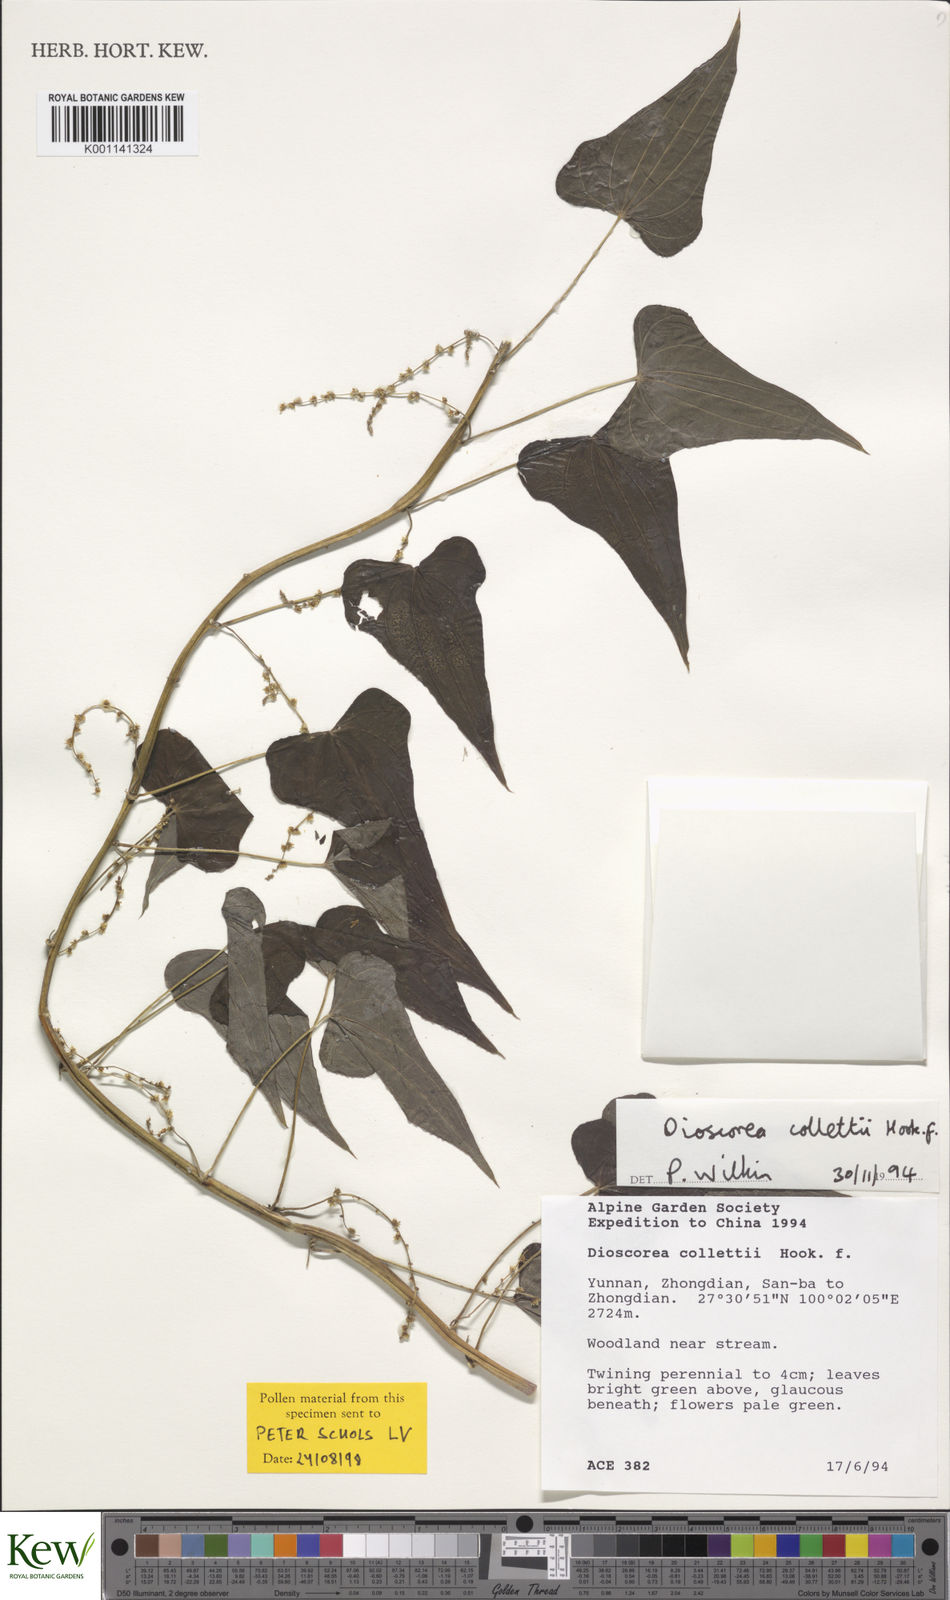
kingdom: Plantae
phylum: Tracheophyta
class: Liliopsida
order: Dioscoreales
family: Dioscoreaceae
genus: Dioscorea
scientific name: Dioscorea collettii
